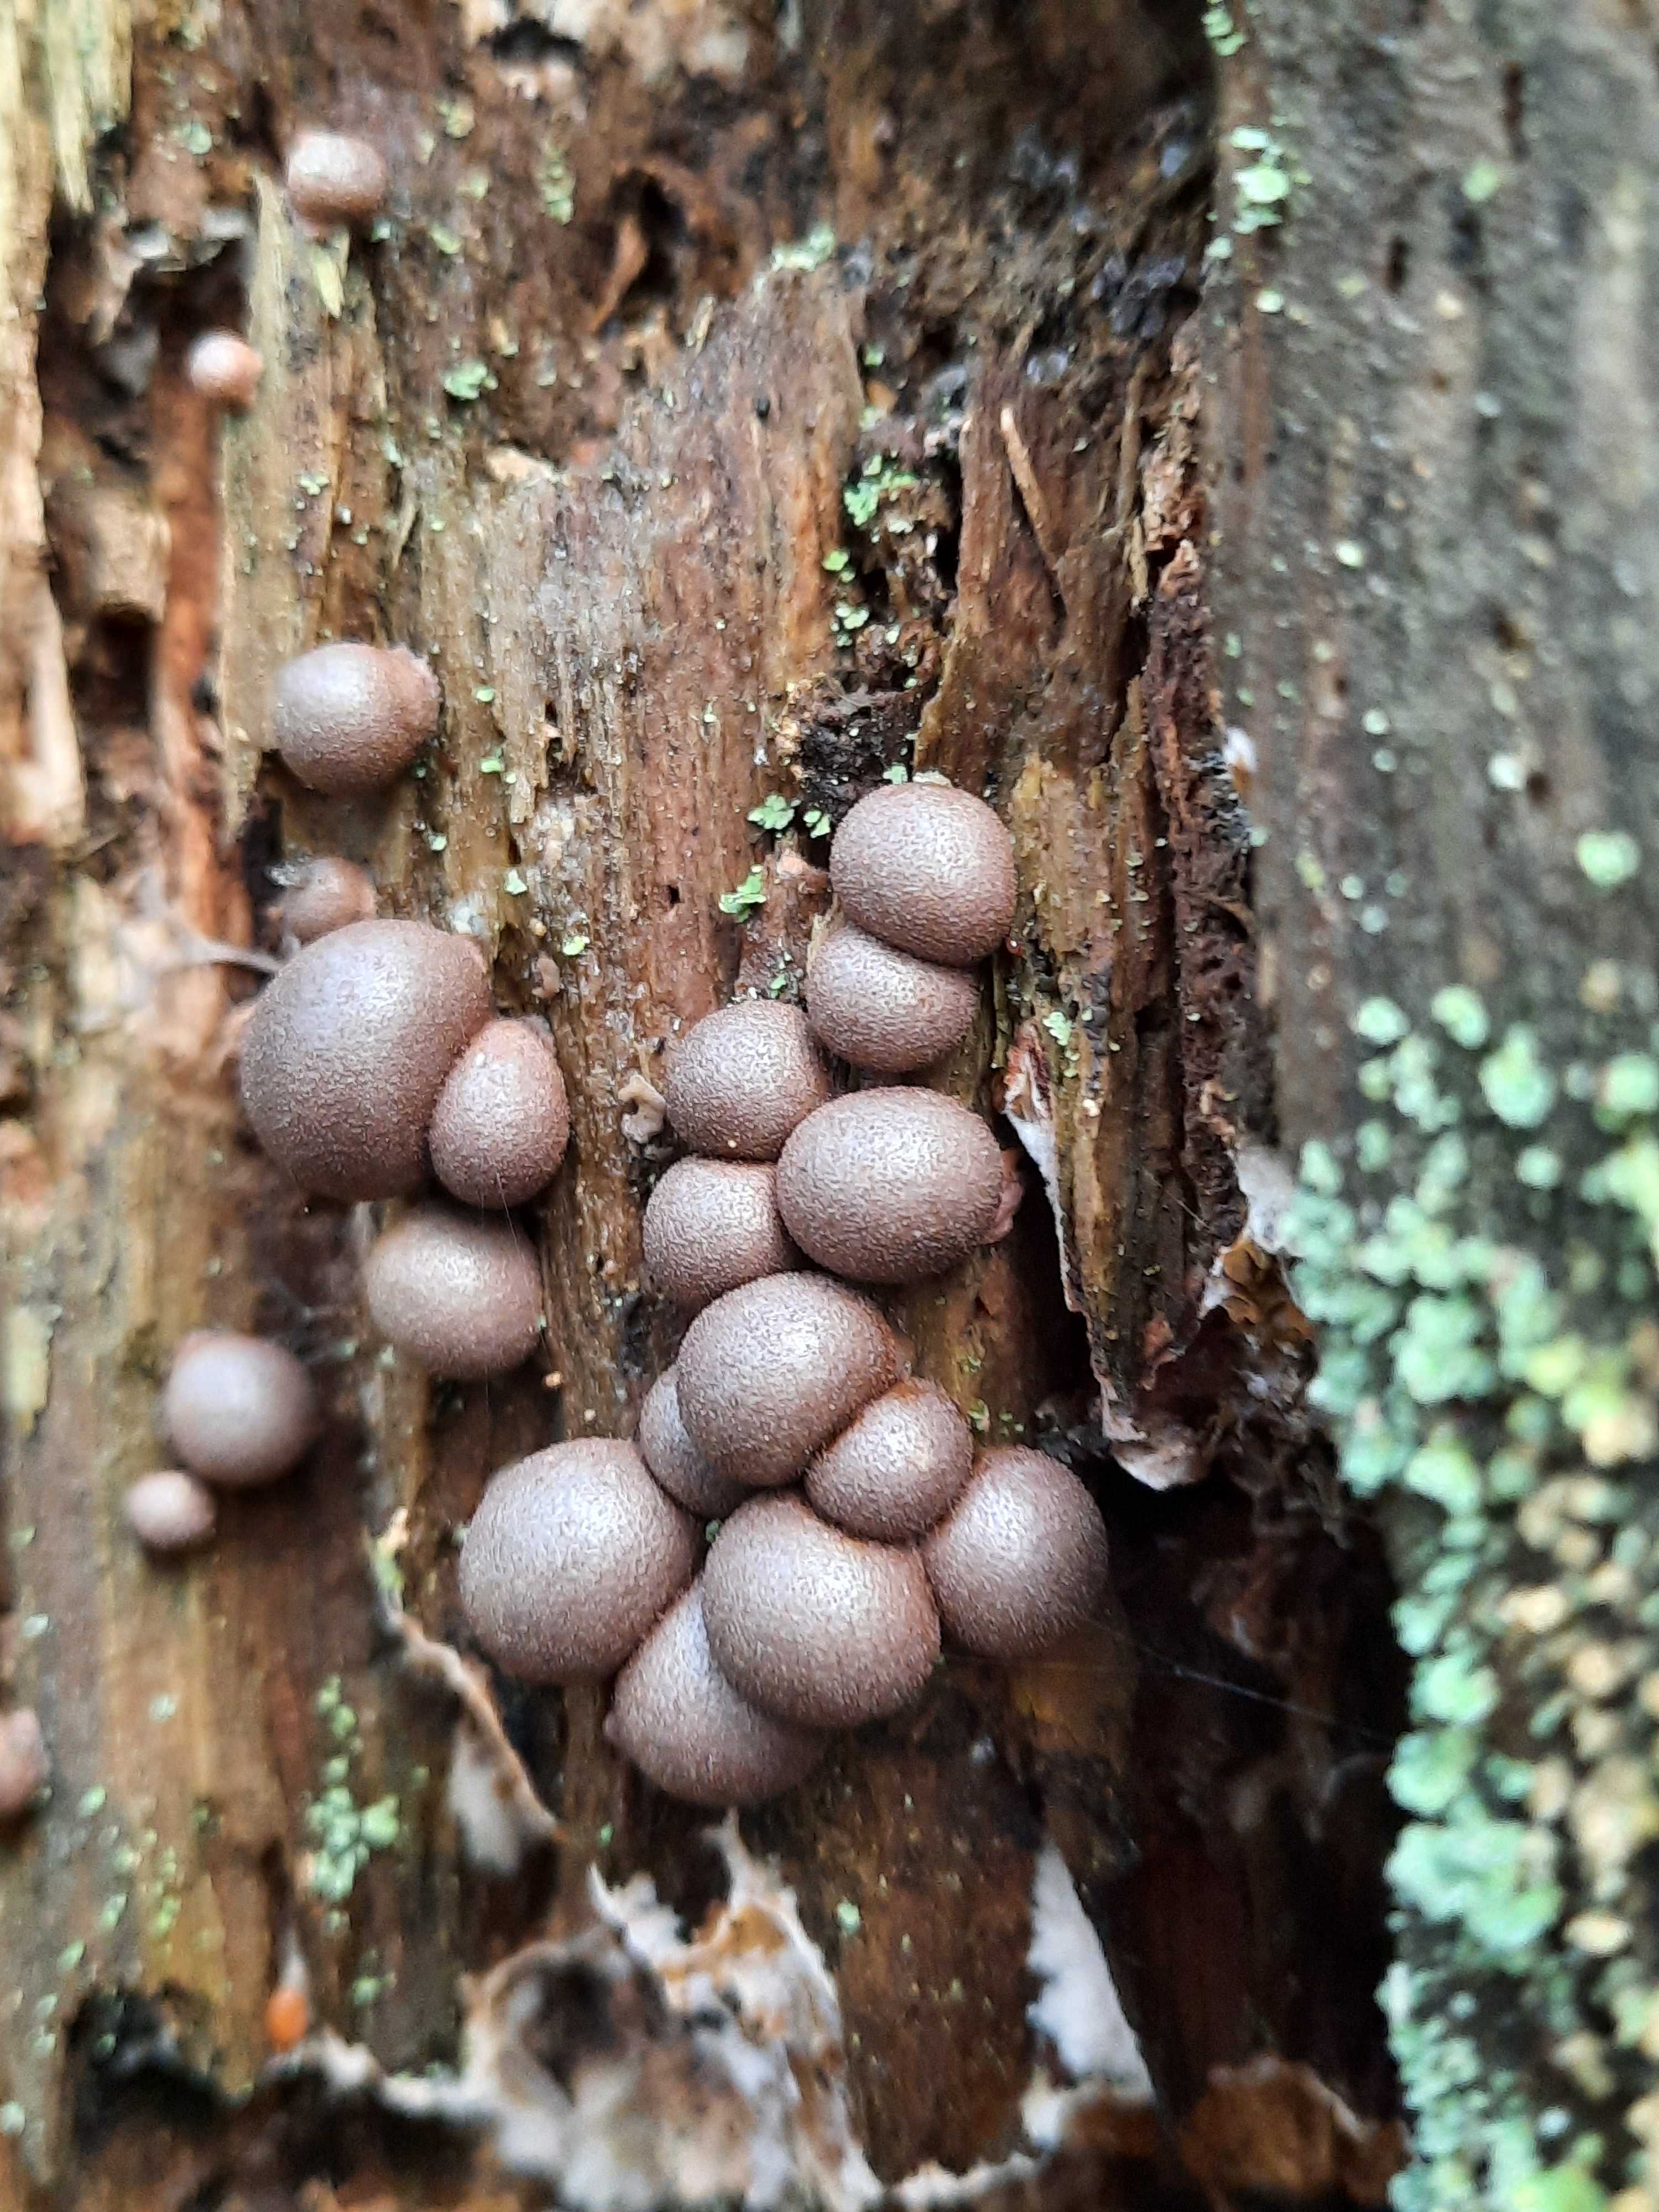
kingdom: Protozoa
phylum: Mycetozoa
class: Myxomycetes
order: Cribrariales
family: Tubiferaceae
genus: Lycogala
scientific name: Lycogala epidendrum
